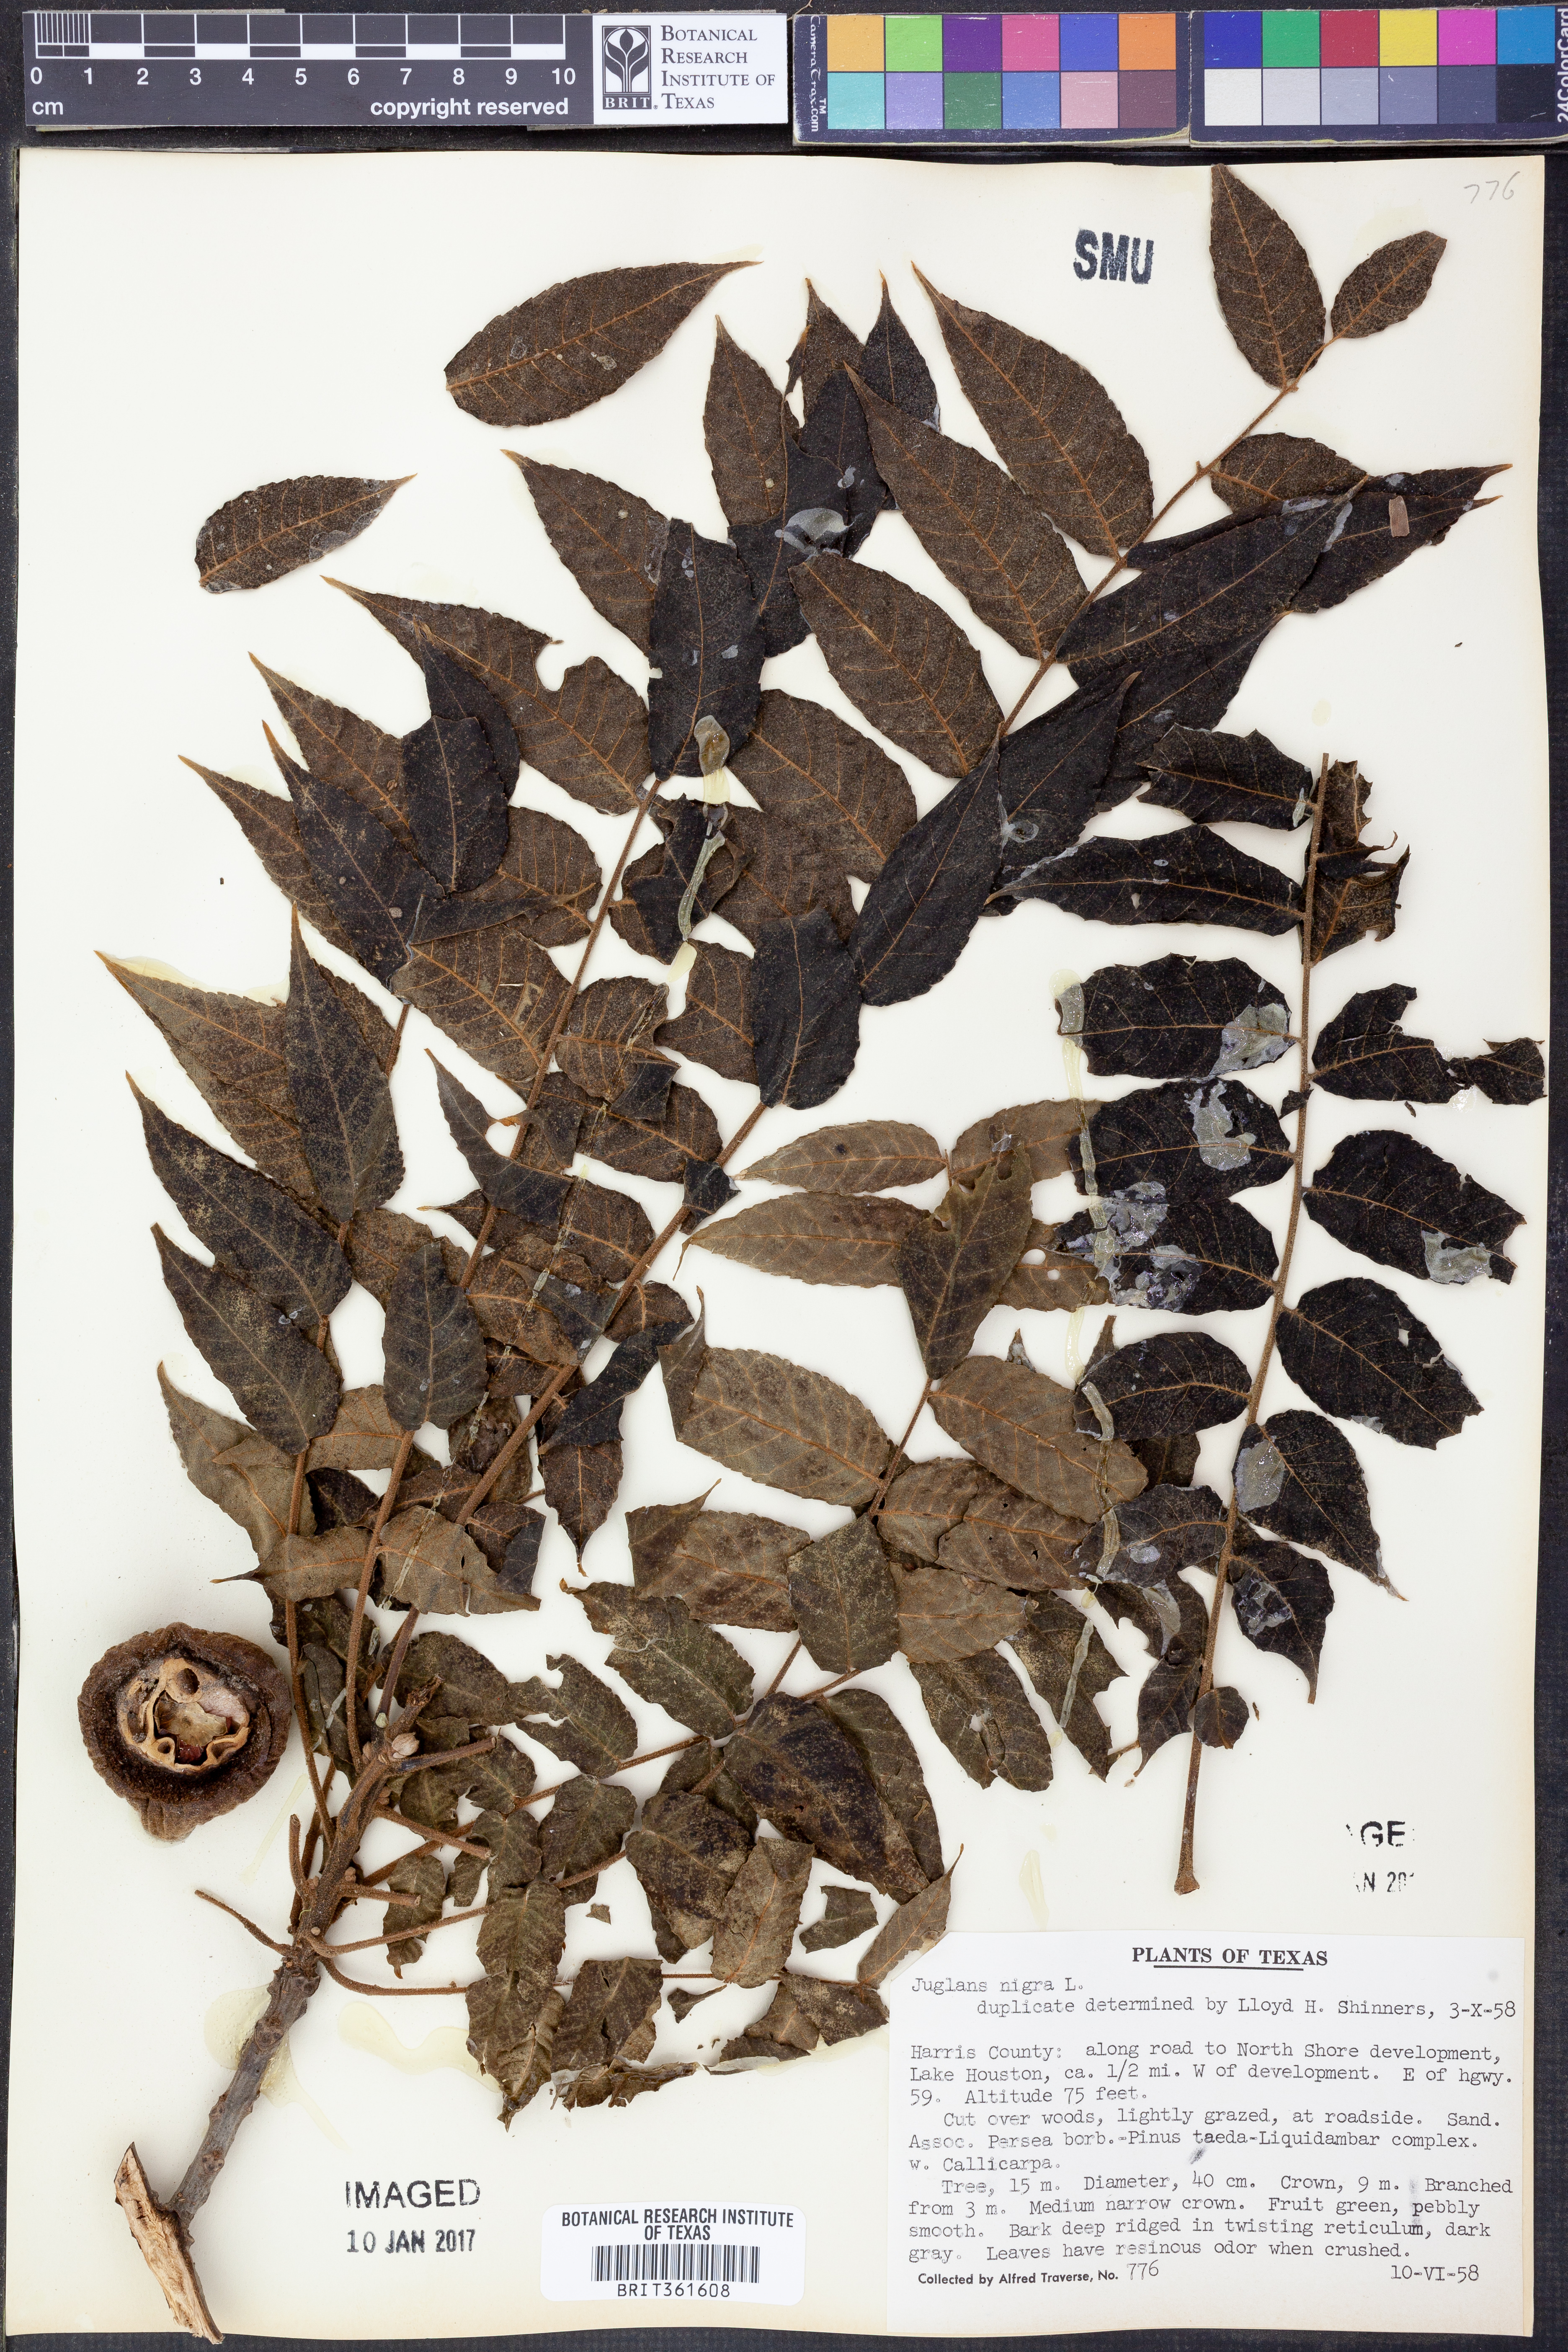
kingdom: Plantae
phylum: Tracheophyta
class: Magnoliopsida
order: Fagales
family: Juglandaceae
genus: Juglans
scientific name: Juglans nigra
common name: Black walnut
